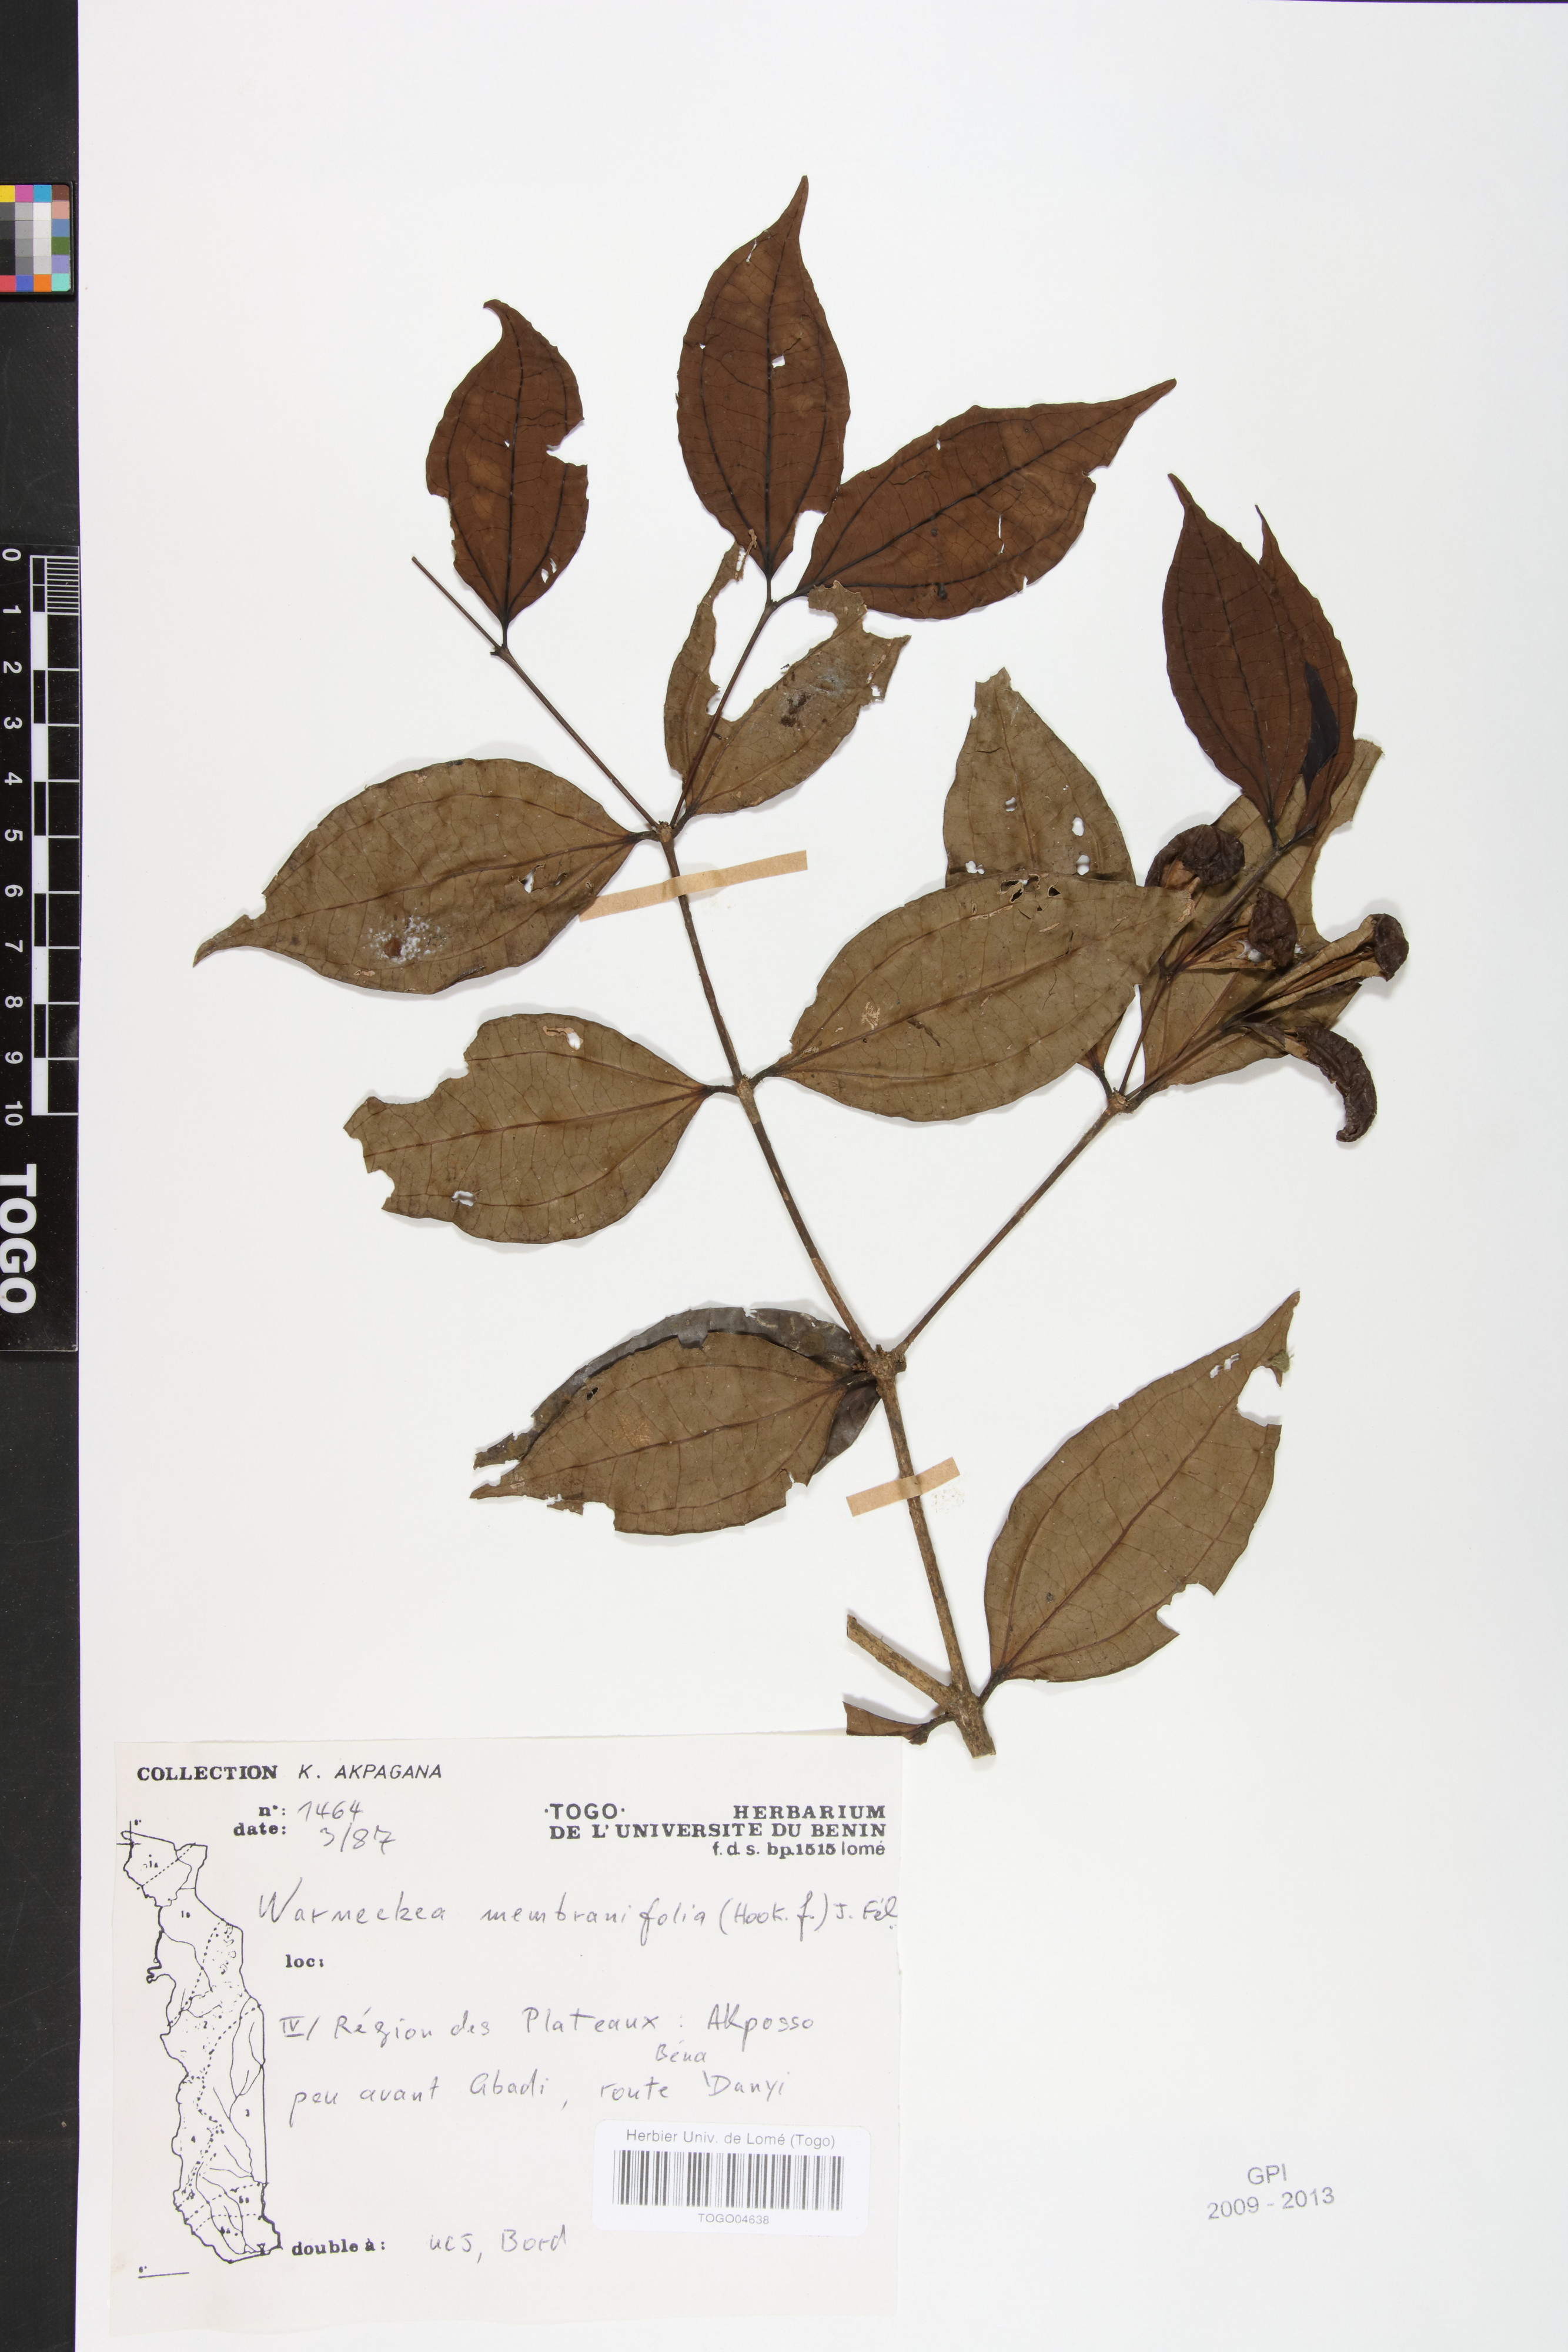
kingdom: Plantae
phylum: Tracheophyta
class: Magnoliopsida
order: Myrtales
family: Melastomataceae
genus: Warneckea
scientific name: Warneckea membranifolia
